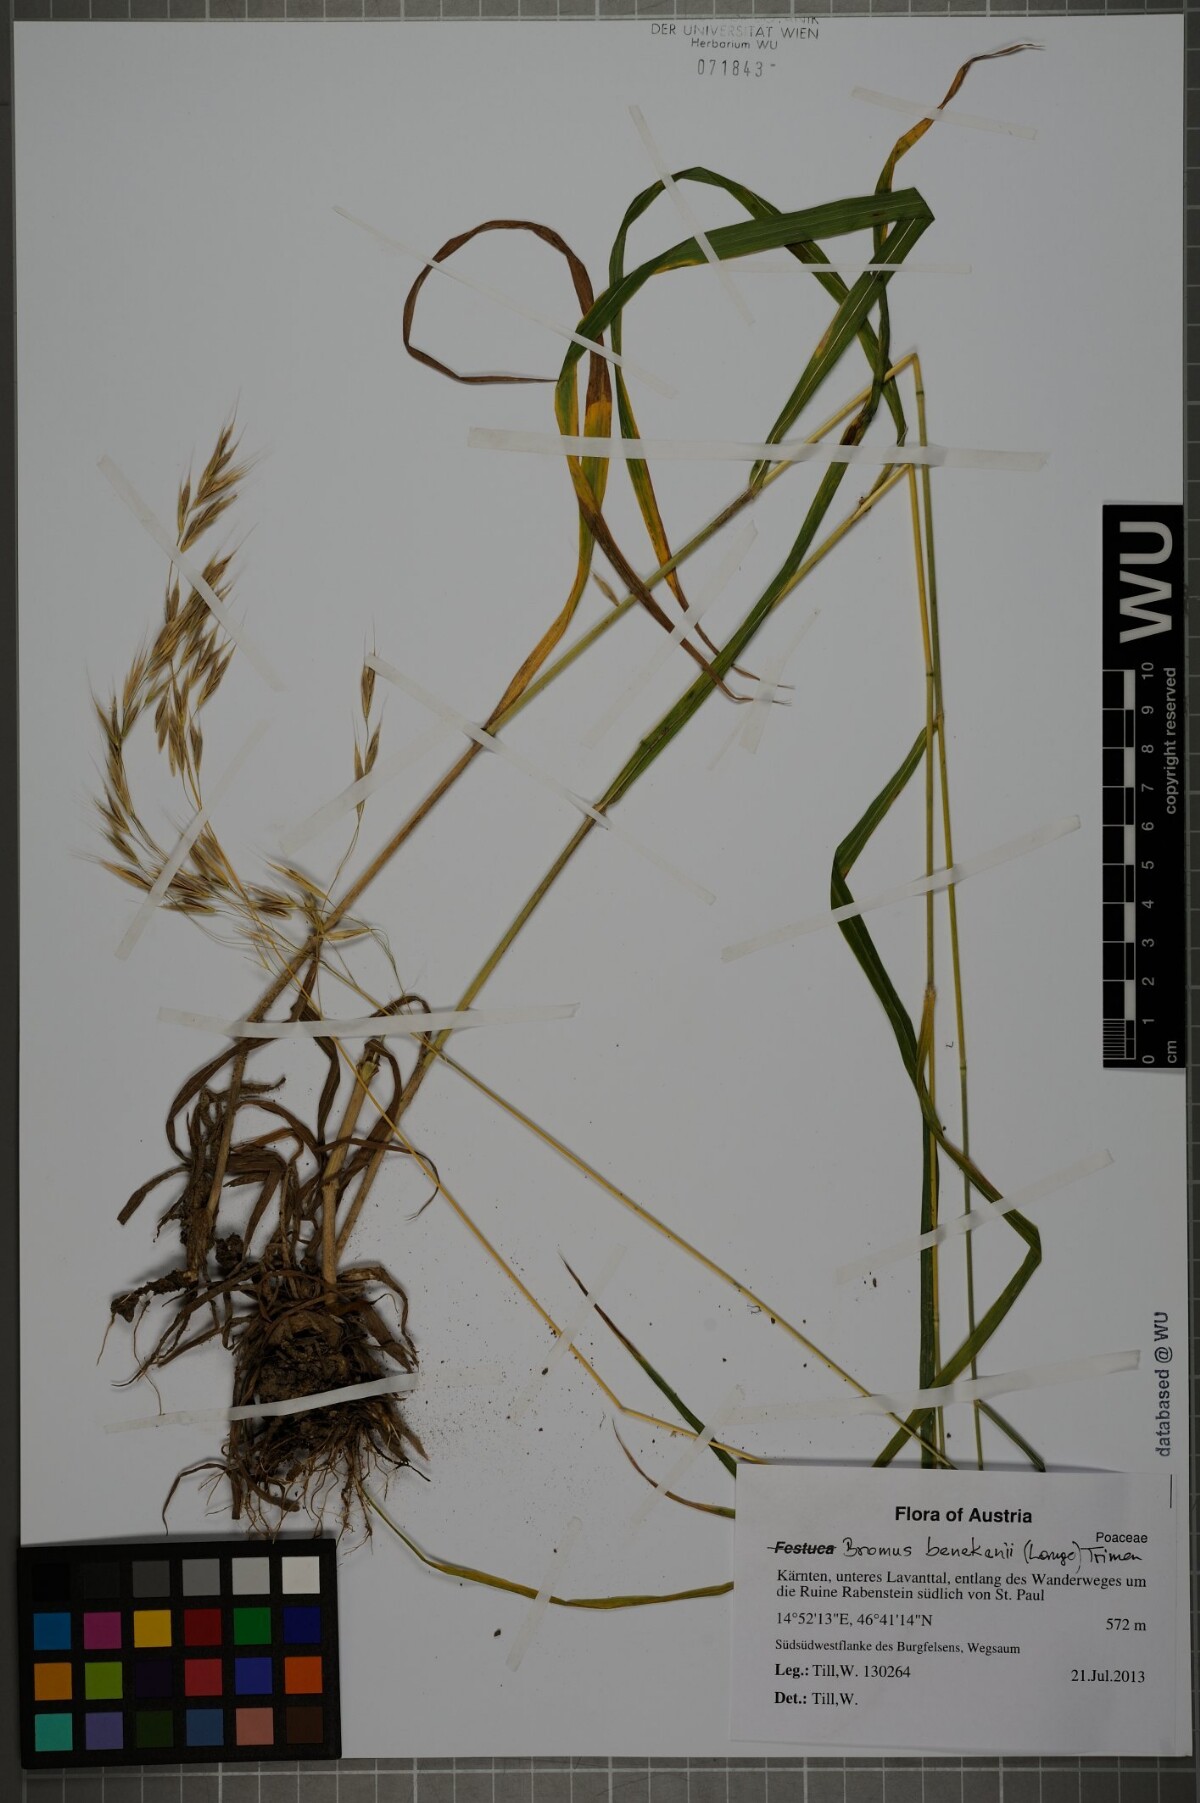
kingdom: Plantae
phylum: Tracheophyta
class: Liliopsida
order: Poales
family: Poaceae
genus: Bromus
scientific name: Bromus benekenii
